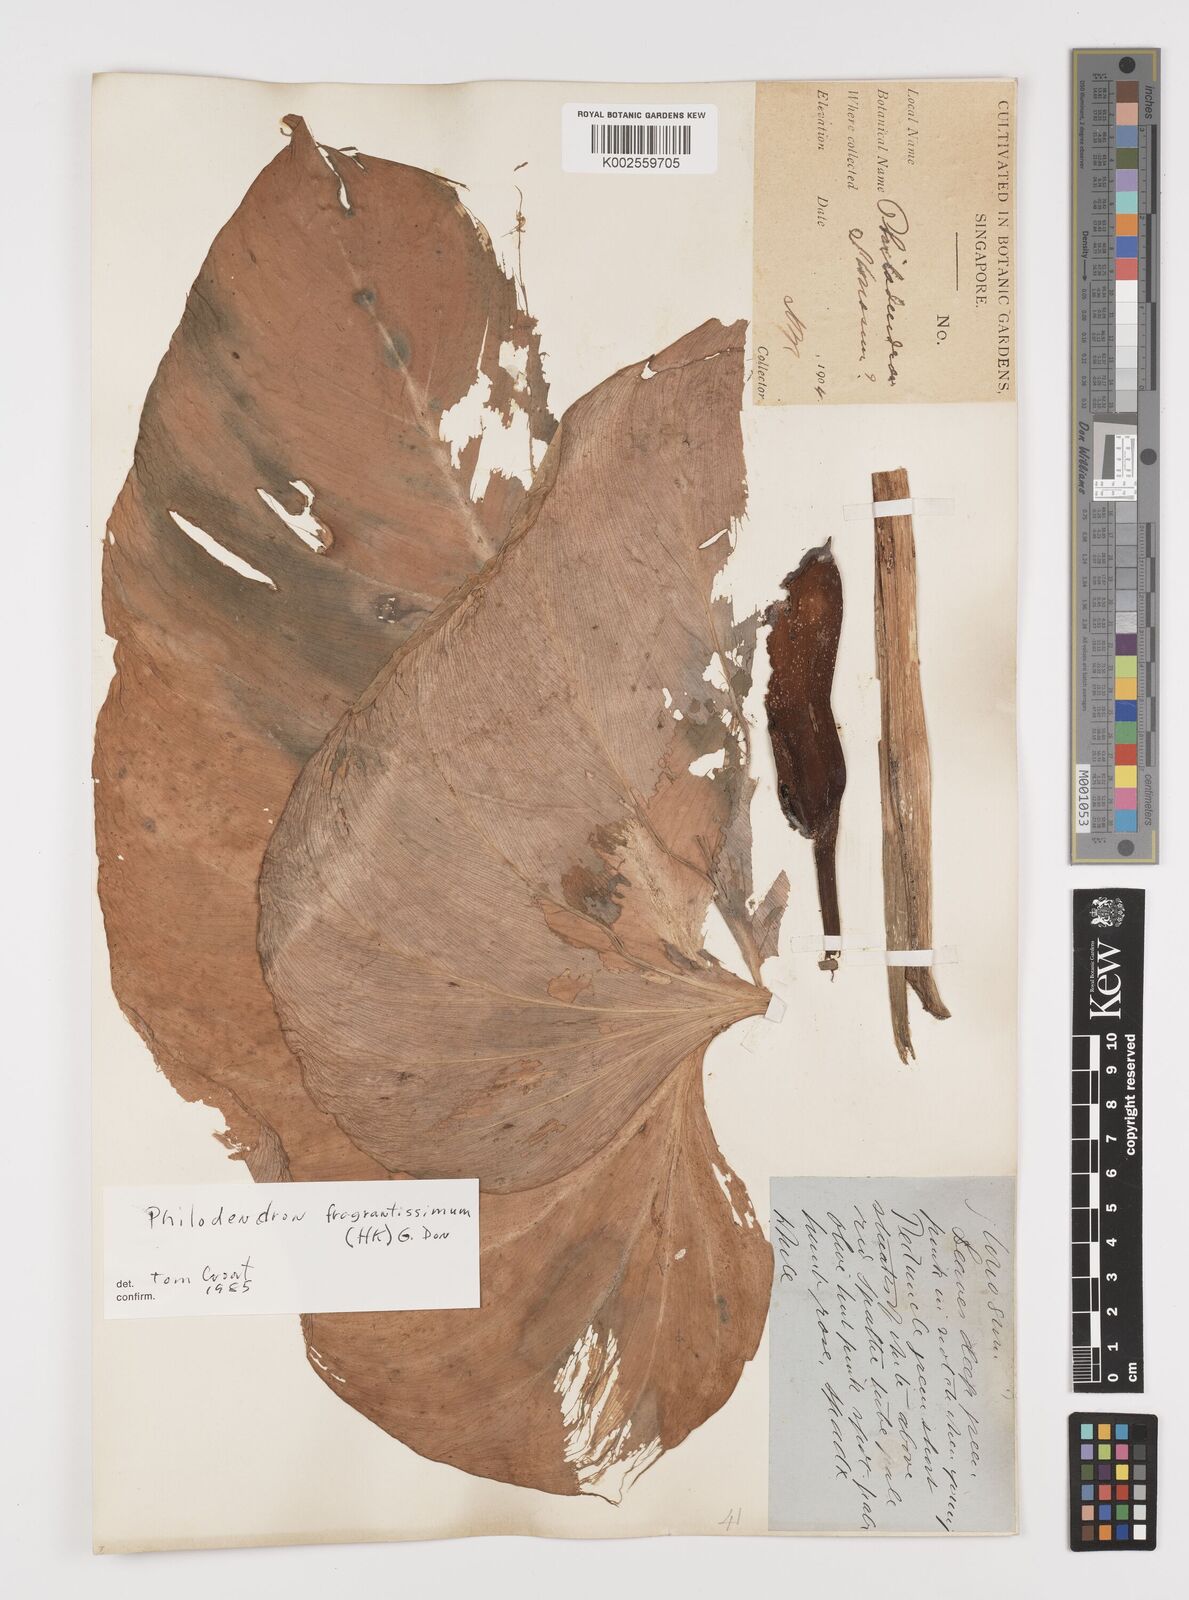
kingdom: Plantae
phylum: Tracheophyta
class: Liliopsida
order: Alismatales
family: Araceae
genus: Philodendron
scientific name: Philodendron fragrantissimum
